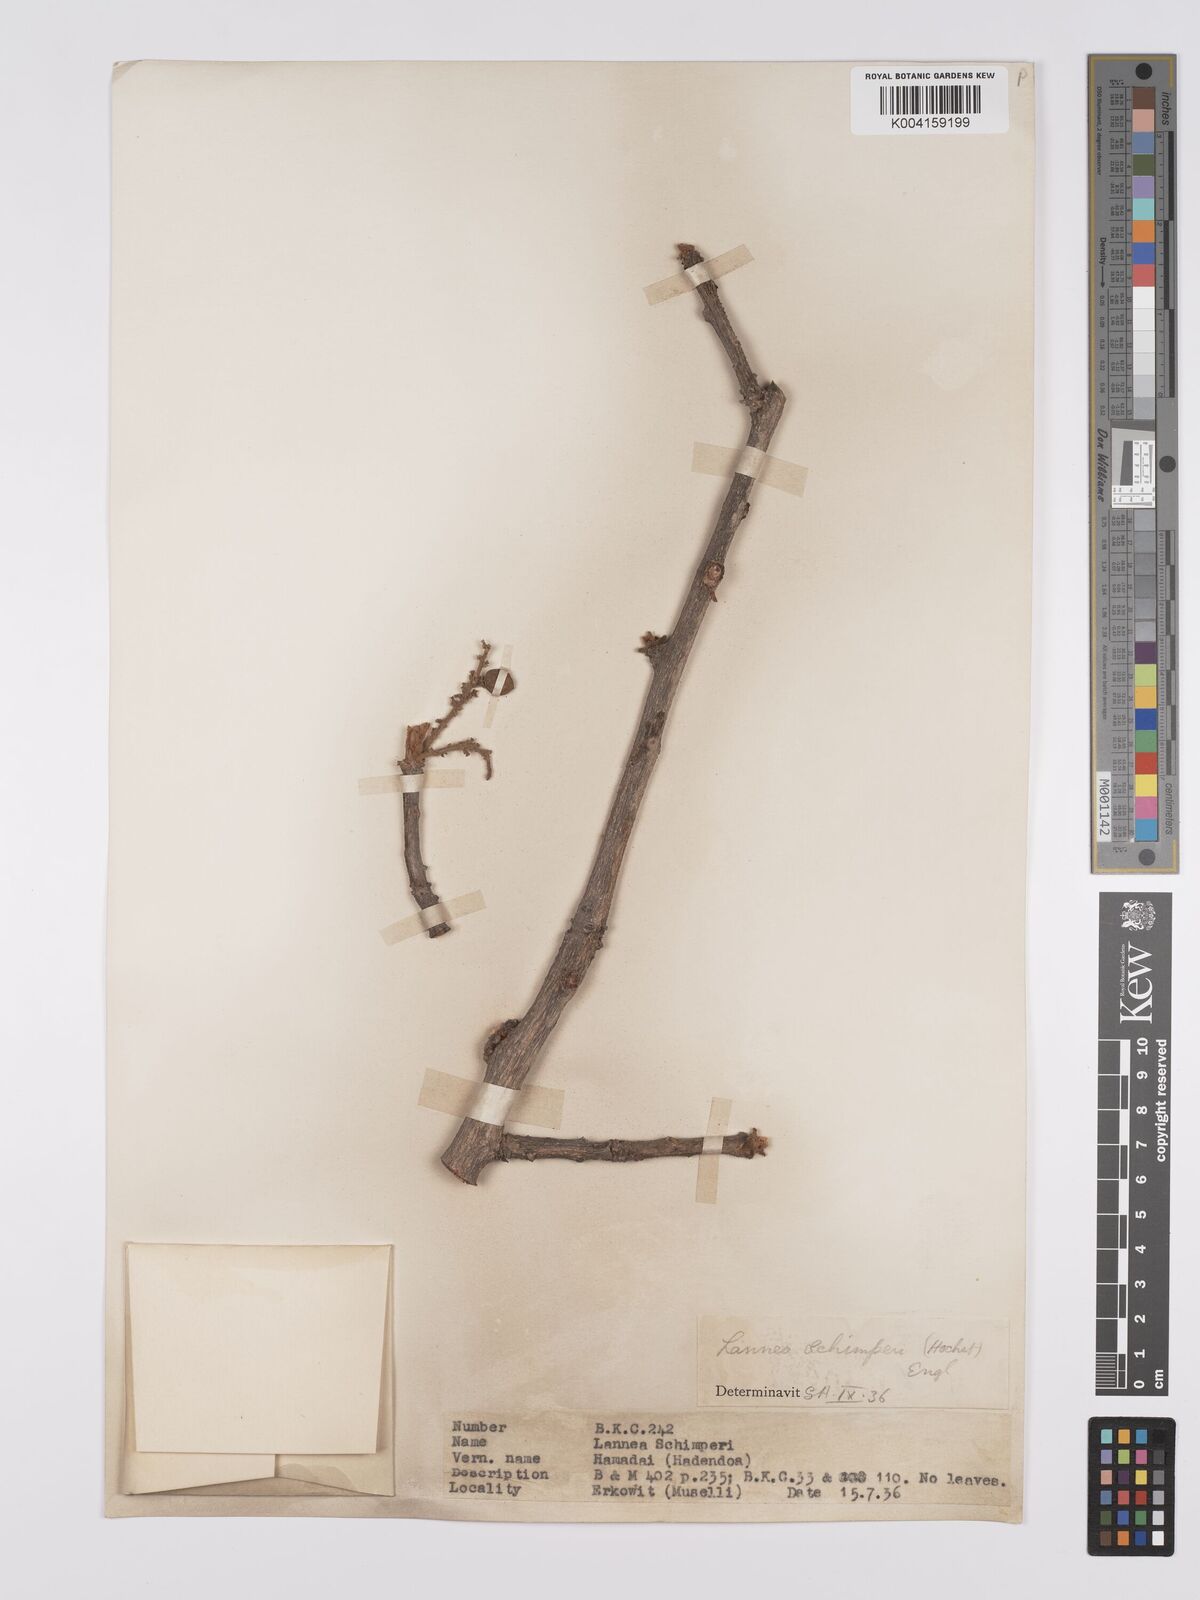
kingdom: Plantae
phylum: Tracheophyta
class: Magnoliopsida
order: Sapindales
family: Anacardiaceae
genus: Lannea
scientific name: Lannea schimperi
